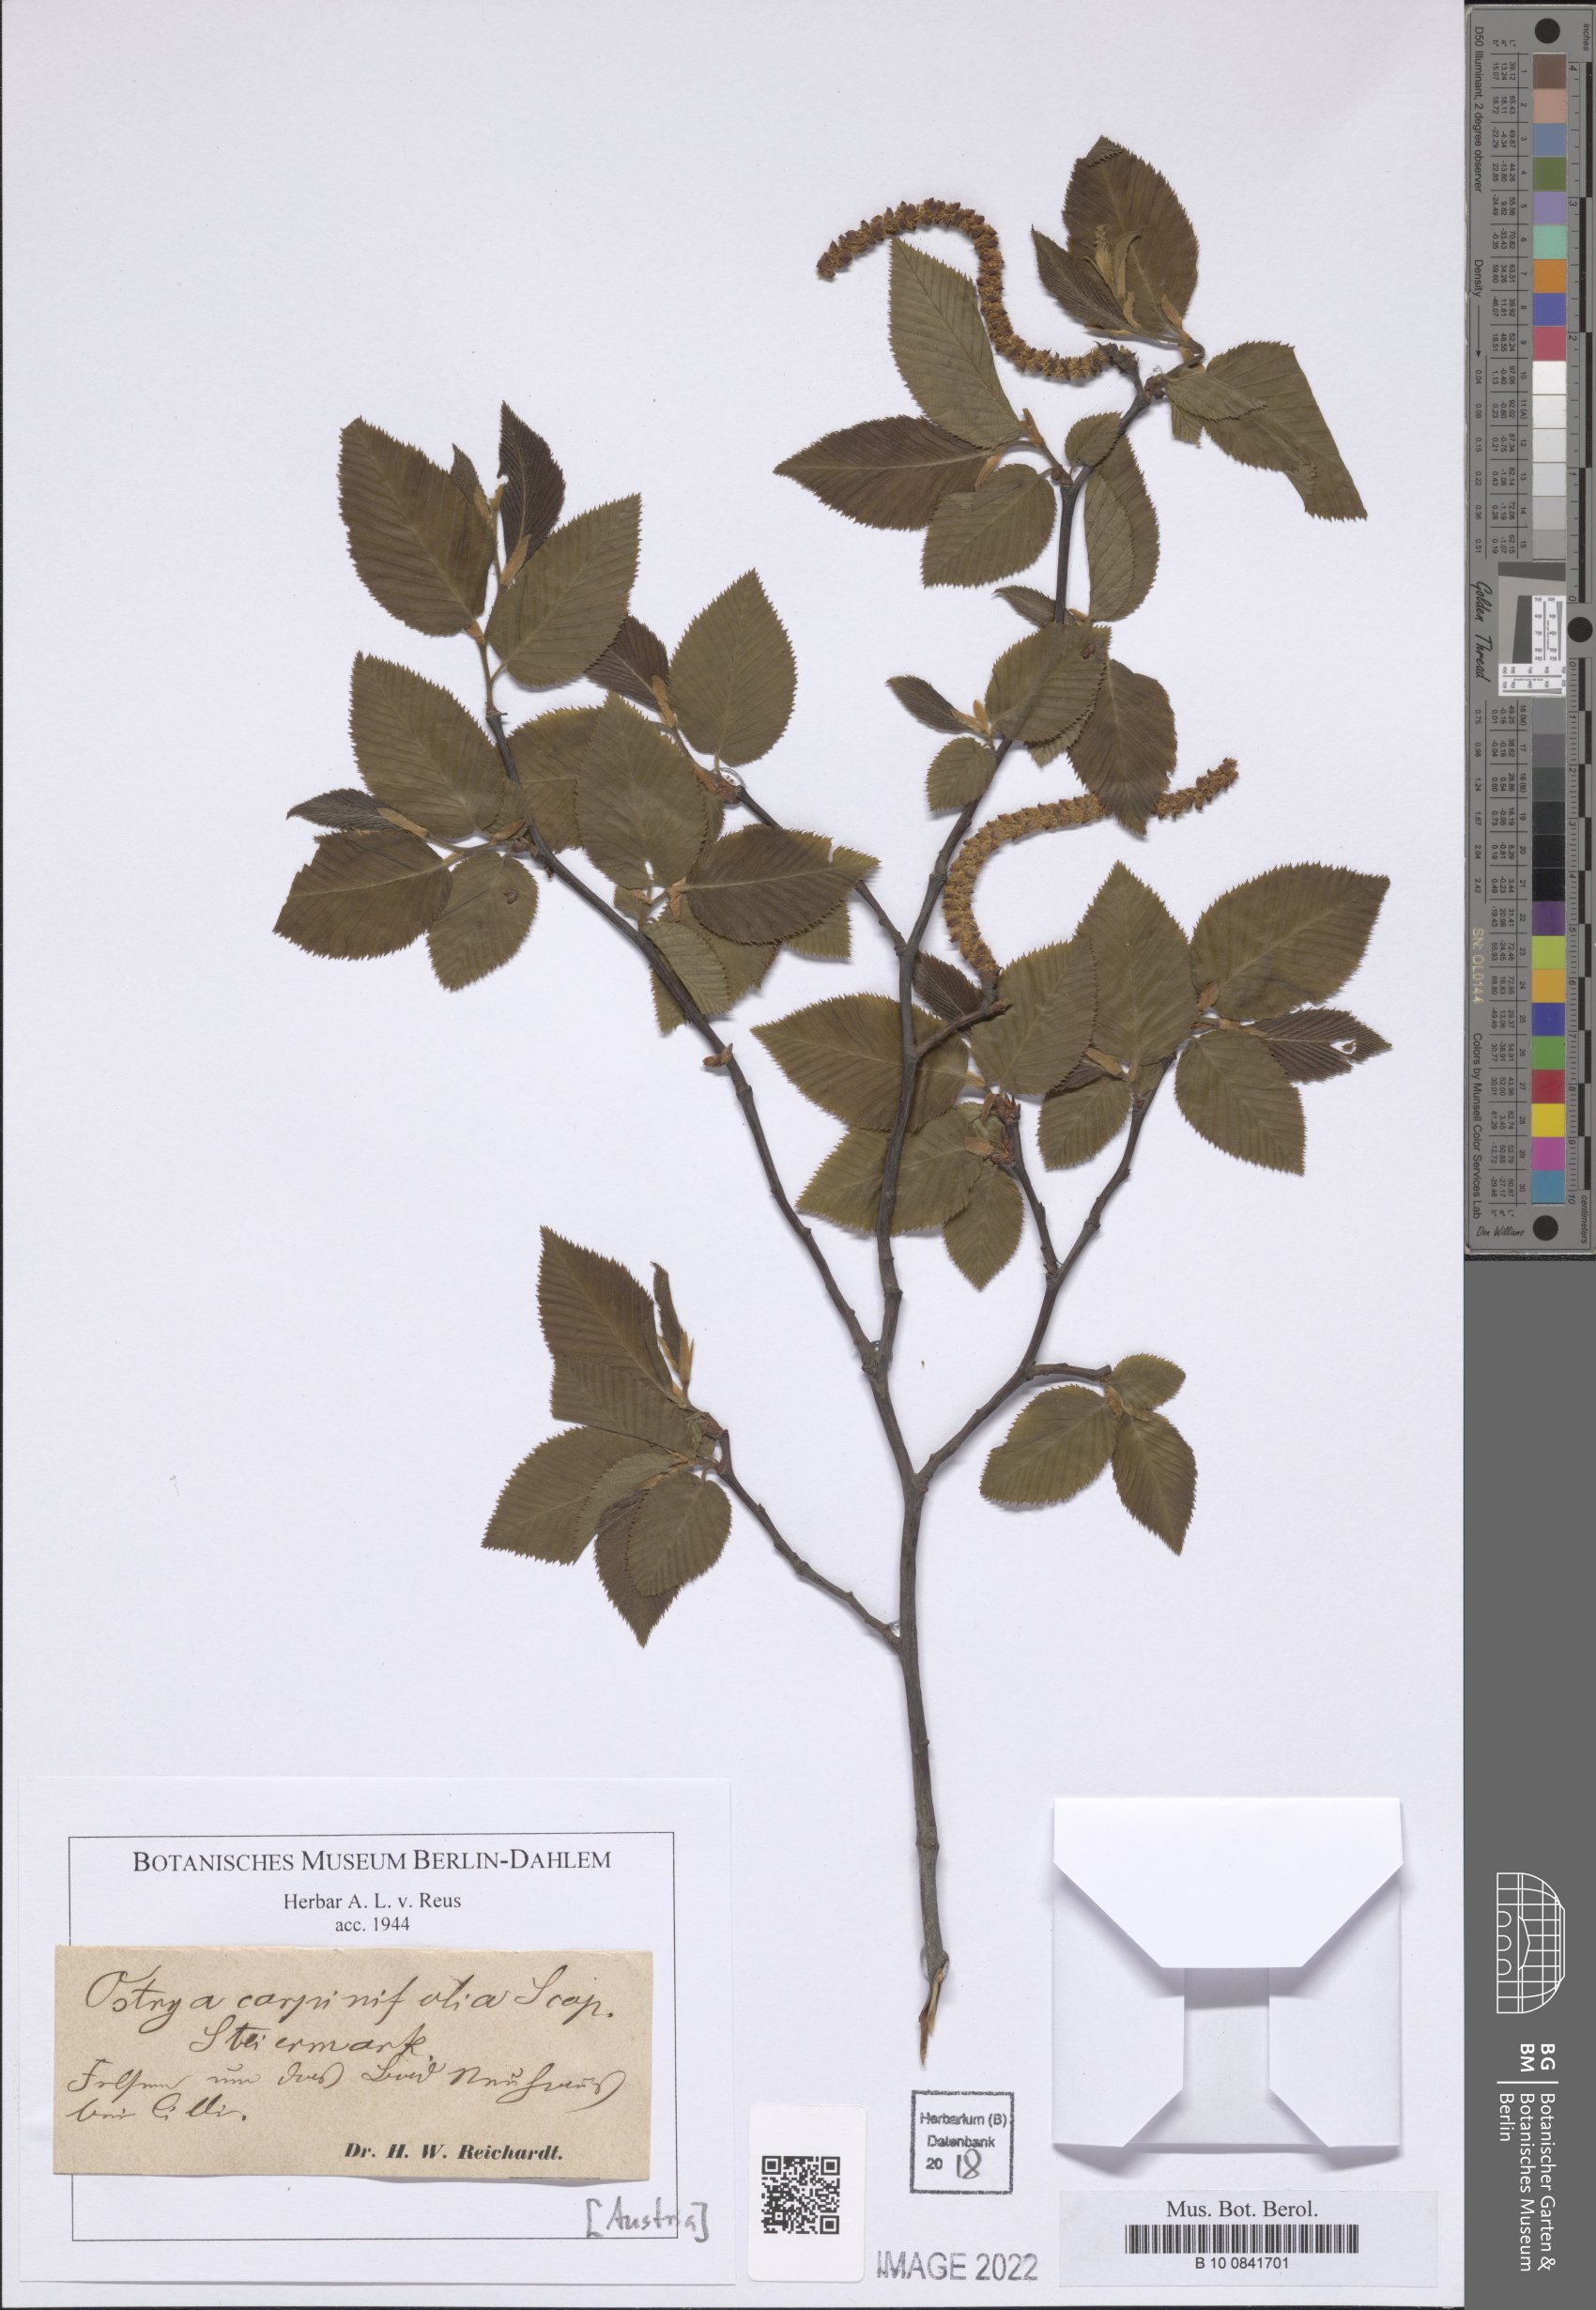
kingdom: Plantae
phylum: Tracheophyta
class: Magnoliopsida
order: Fagales
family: Betulaceae
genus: Ostrya
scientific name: Ostrya carpinifolia
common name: European hop-hornbeam
